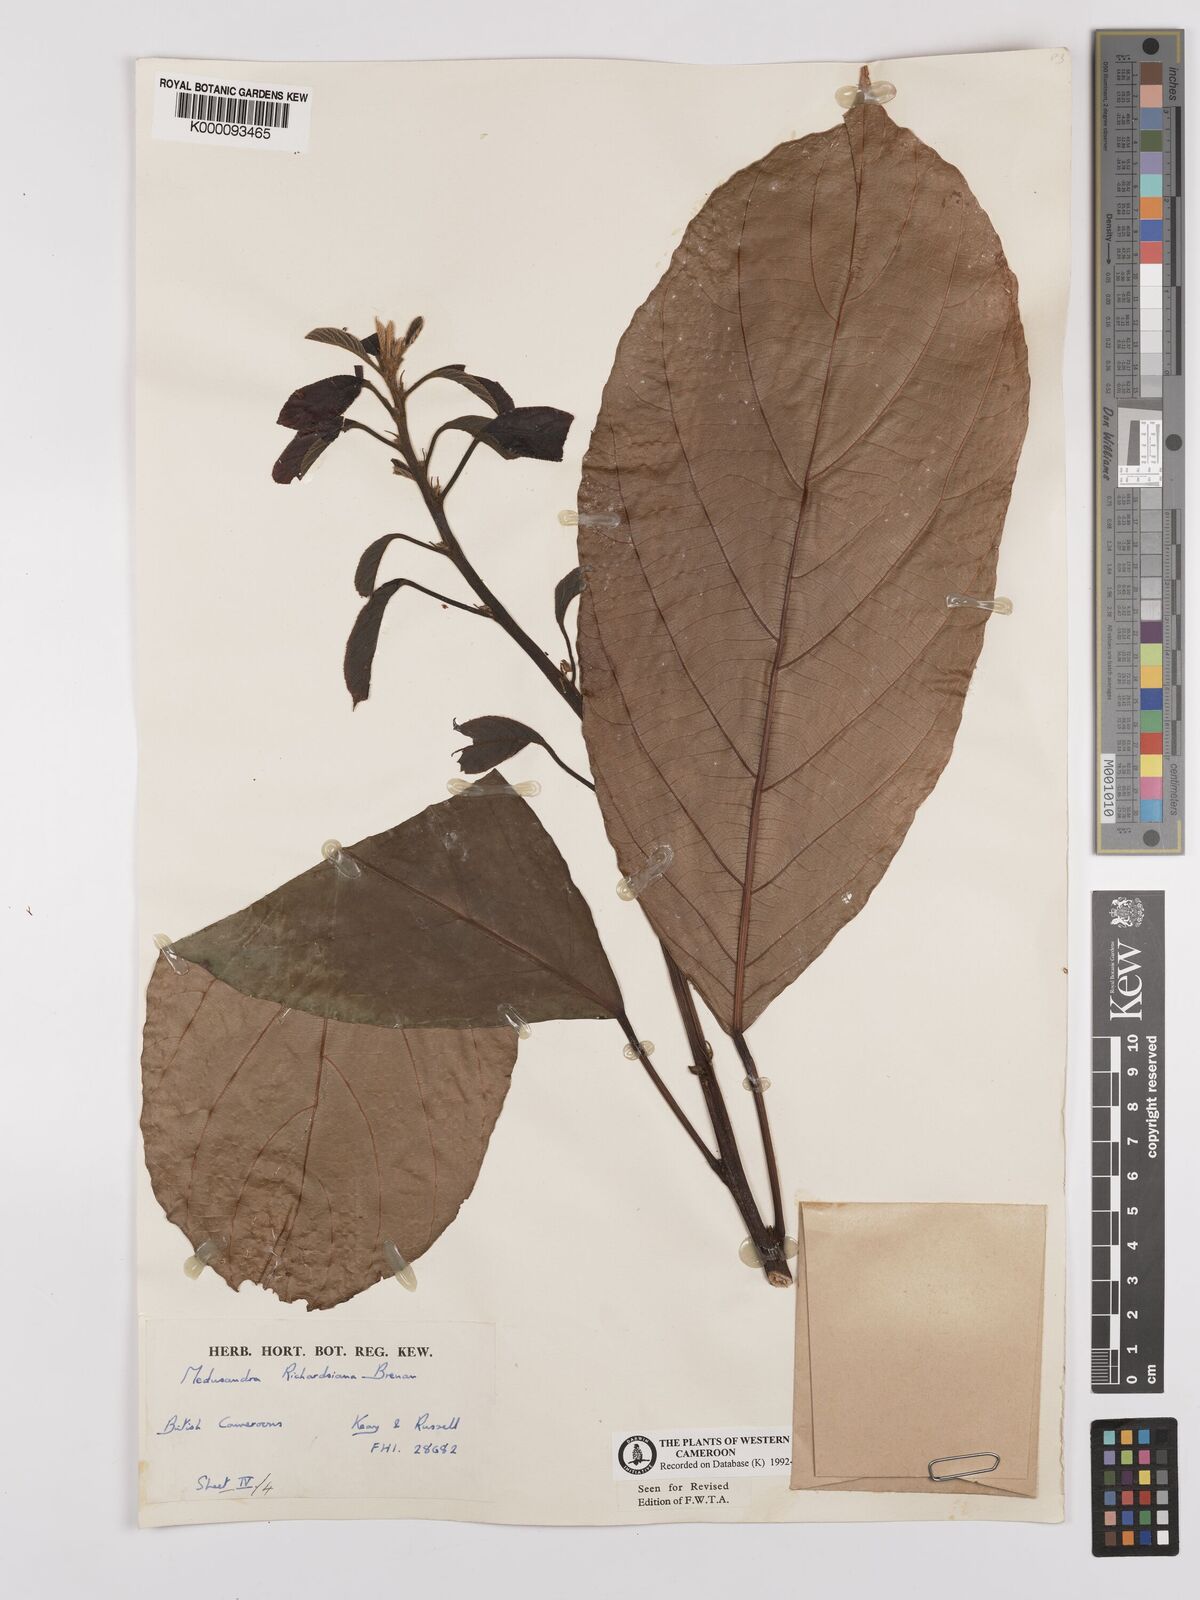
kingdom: Plantae
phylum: Tracheophyta
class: Magnoliopsida
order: Saxifragales
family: Peridiscaceae
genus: Medusandra
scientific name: Medusandra richardsiana
